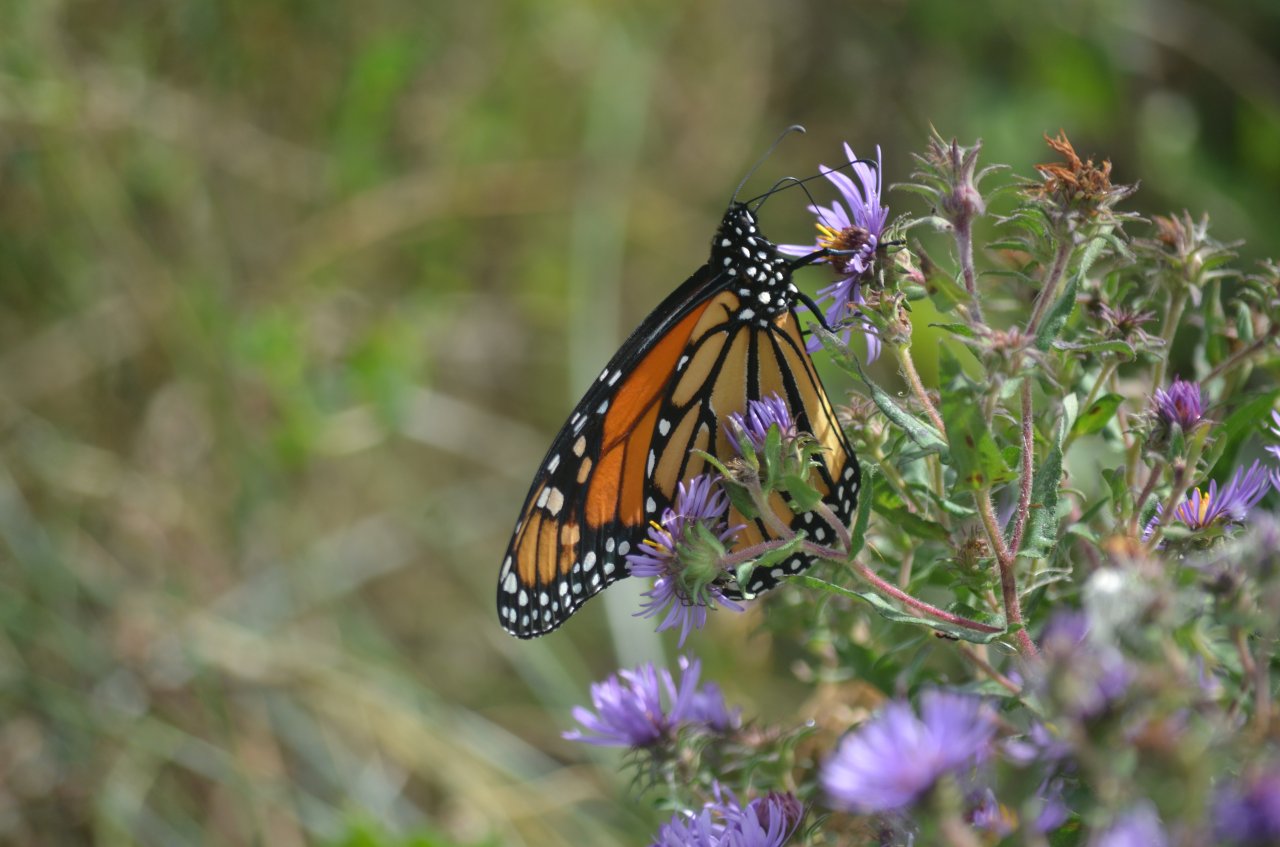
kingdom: Animalia
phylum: Arthropoda
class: Insecta
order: Lepidoptera
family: Nymphalidae
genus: Danaus
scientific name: Danaus plexippus
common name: Monarch
